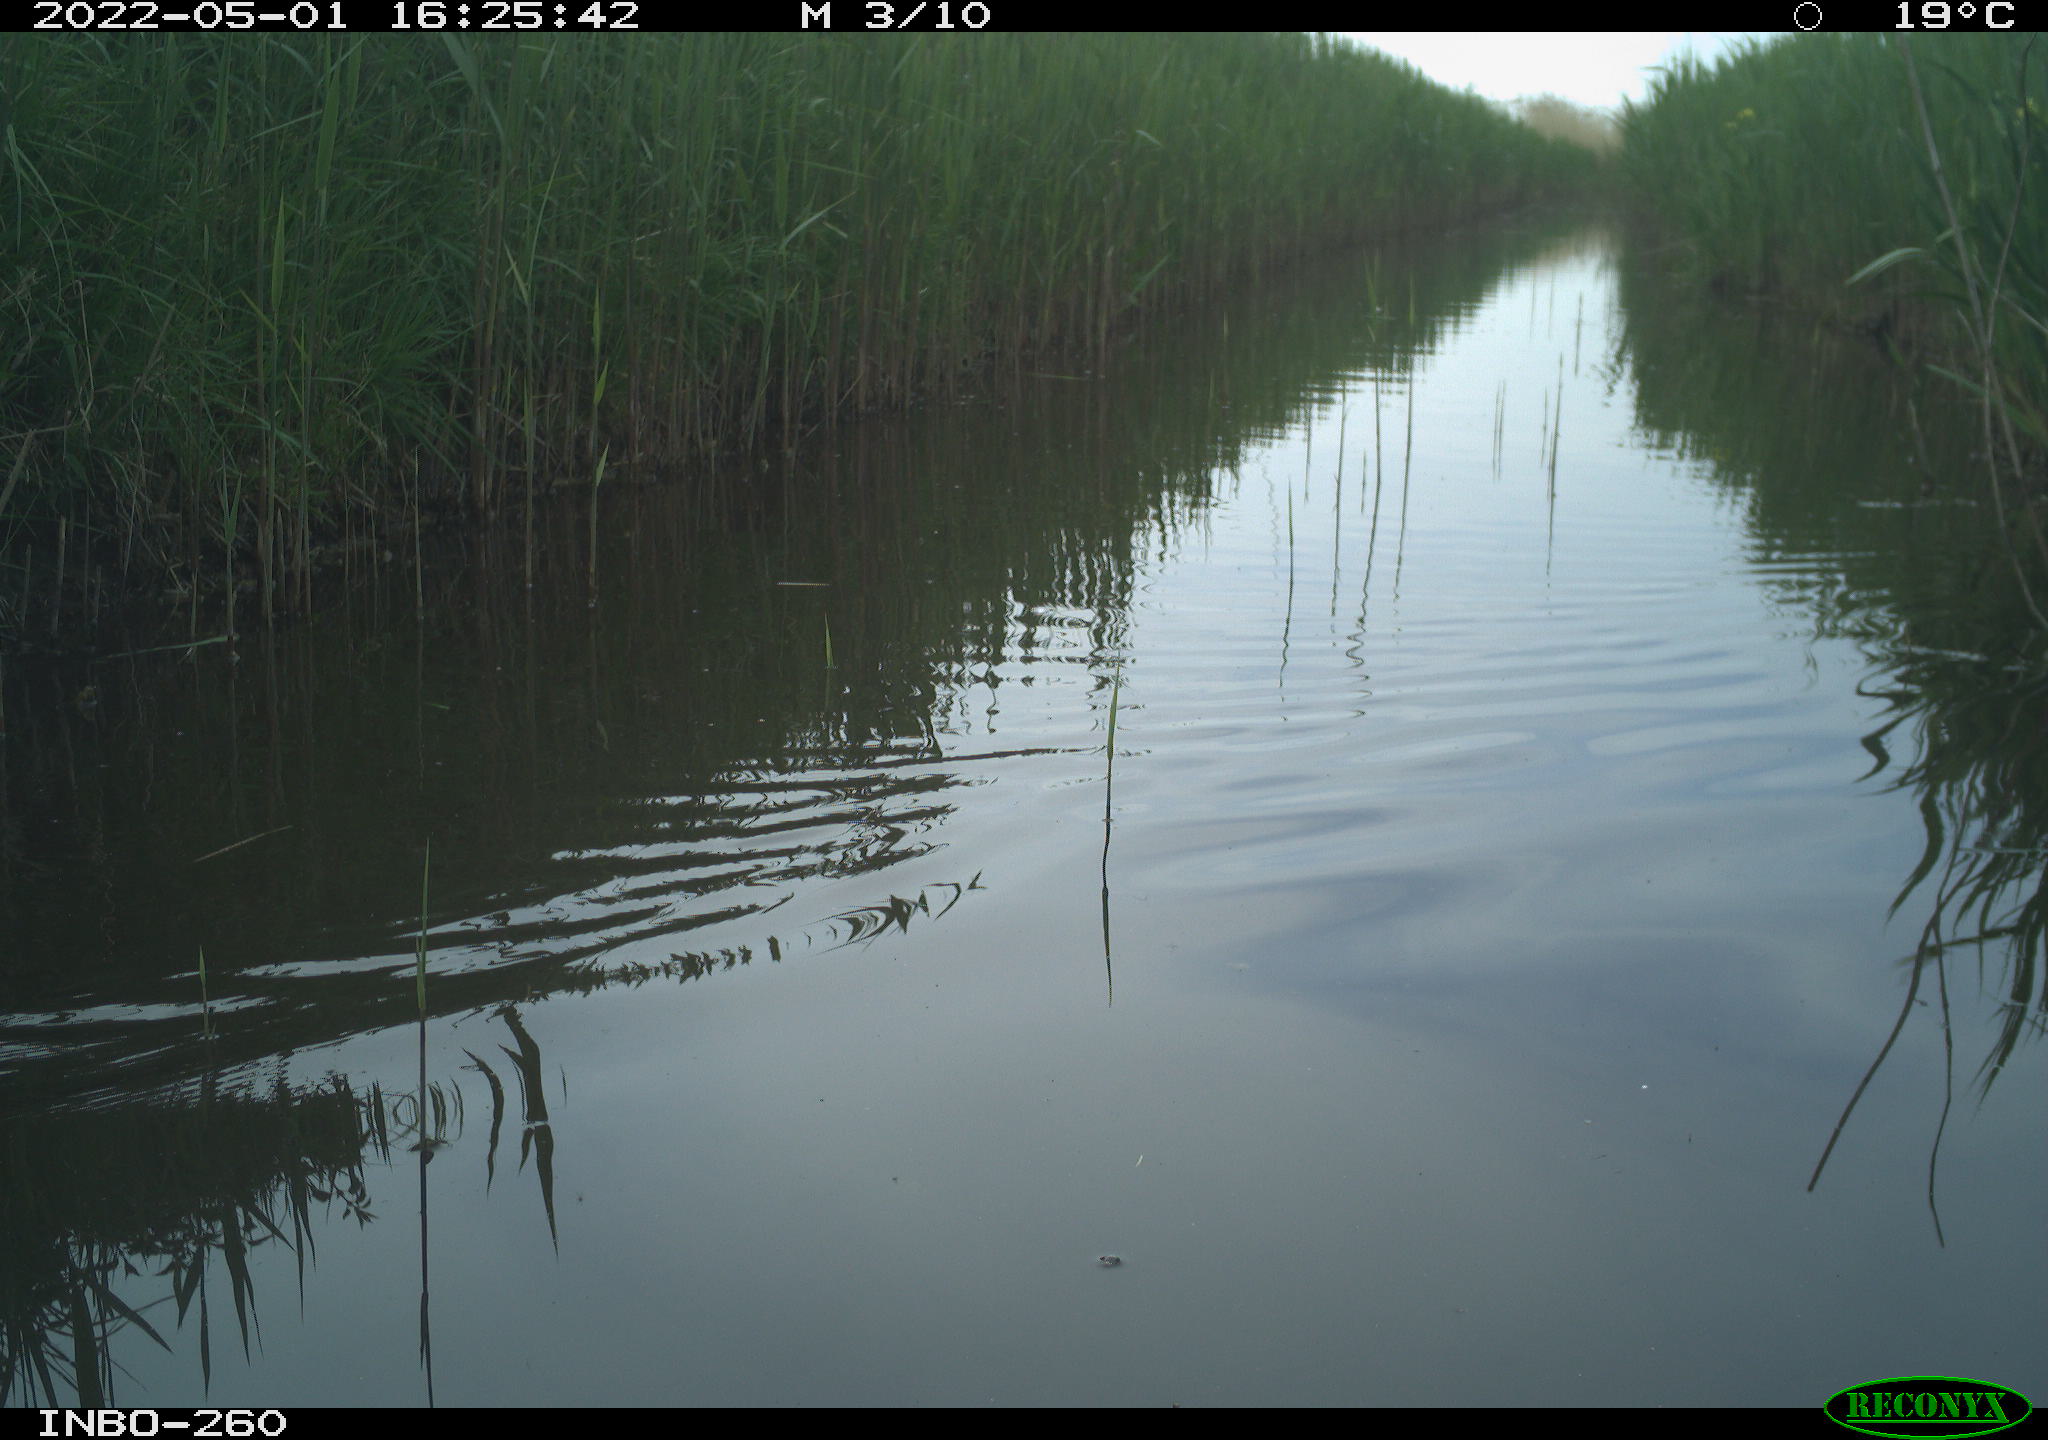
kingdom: Animalia
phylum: Chordata
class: Aves
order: Gruiformes
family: Rallidae
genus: Fulica
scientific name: Fulica atra
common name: Eurasian coot
